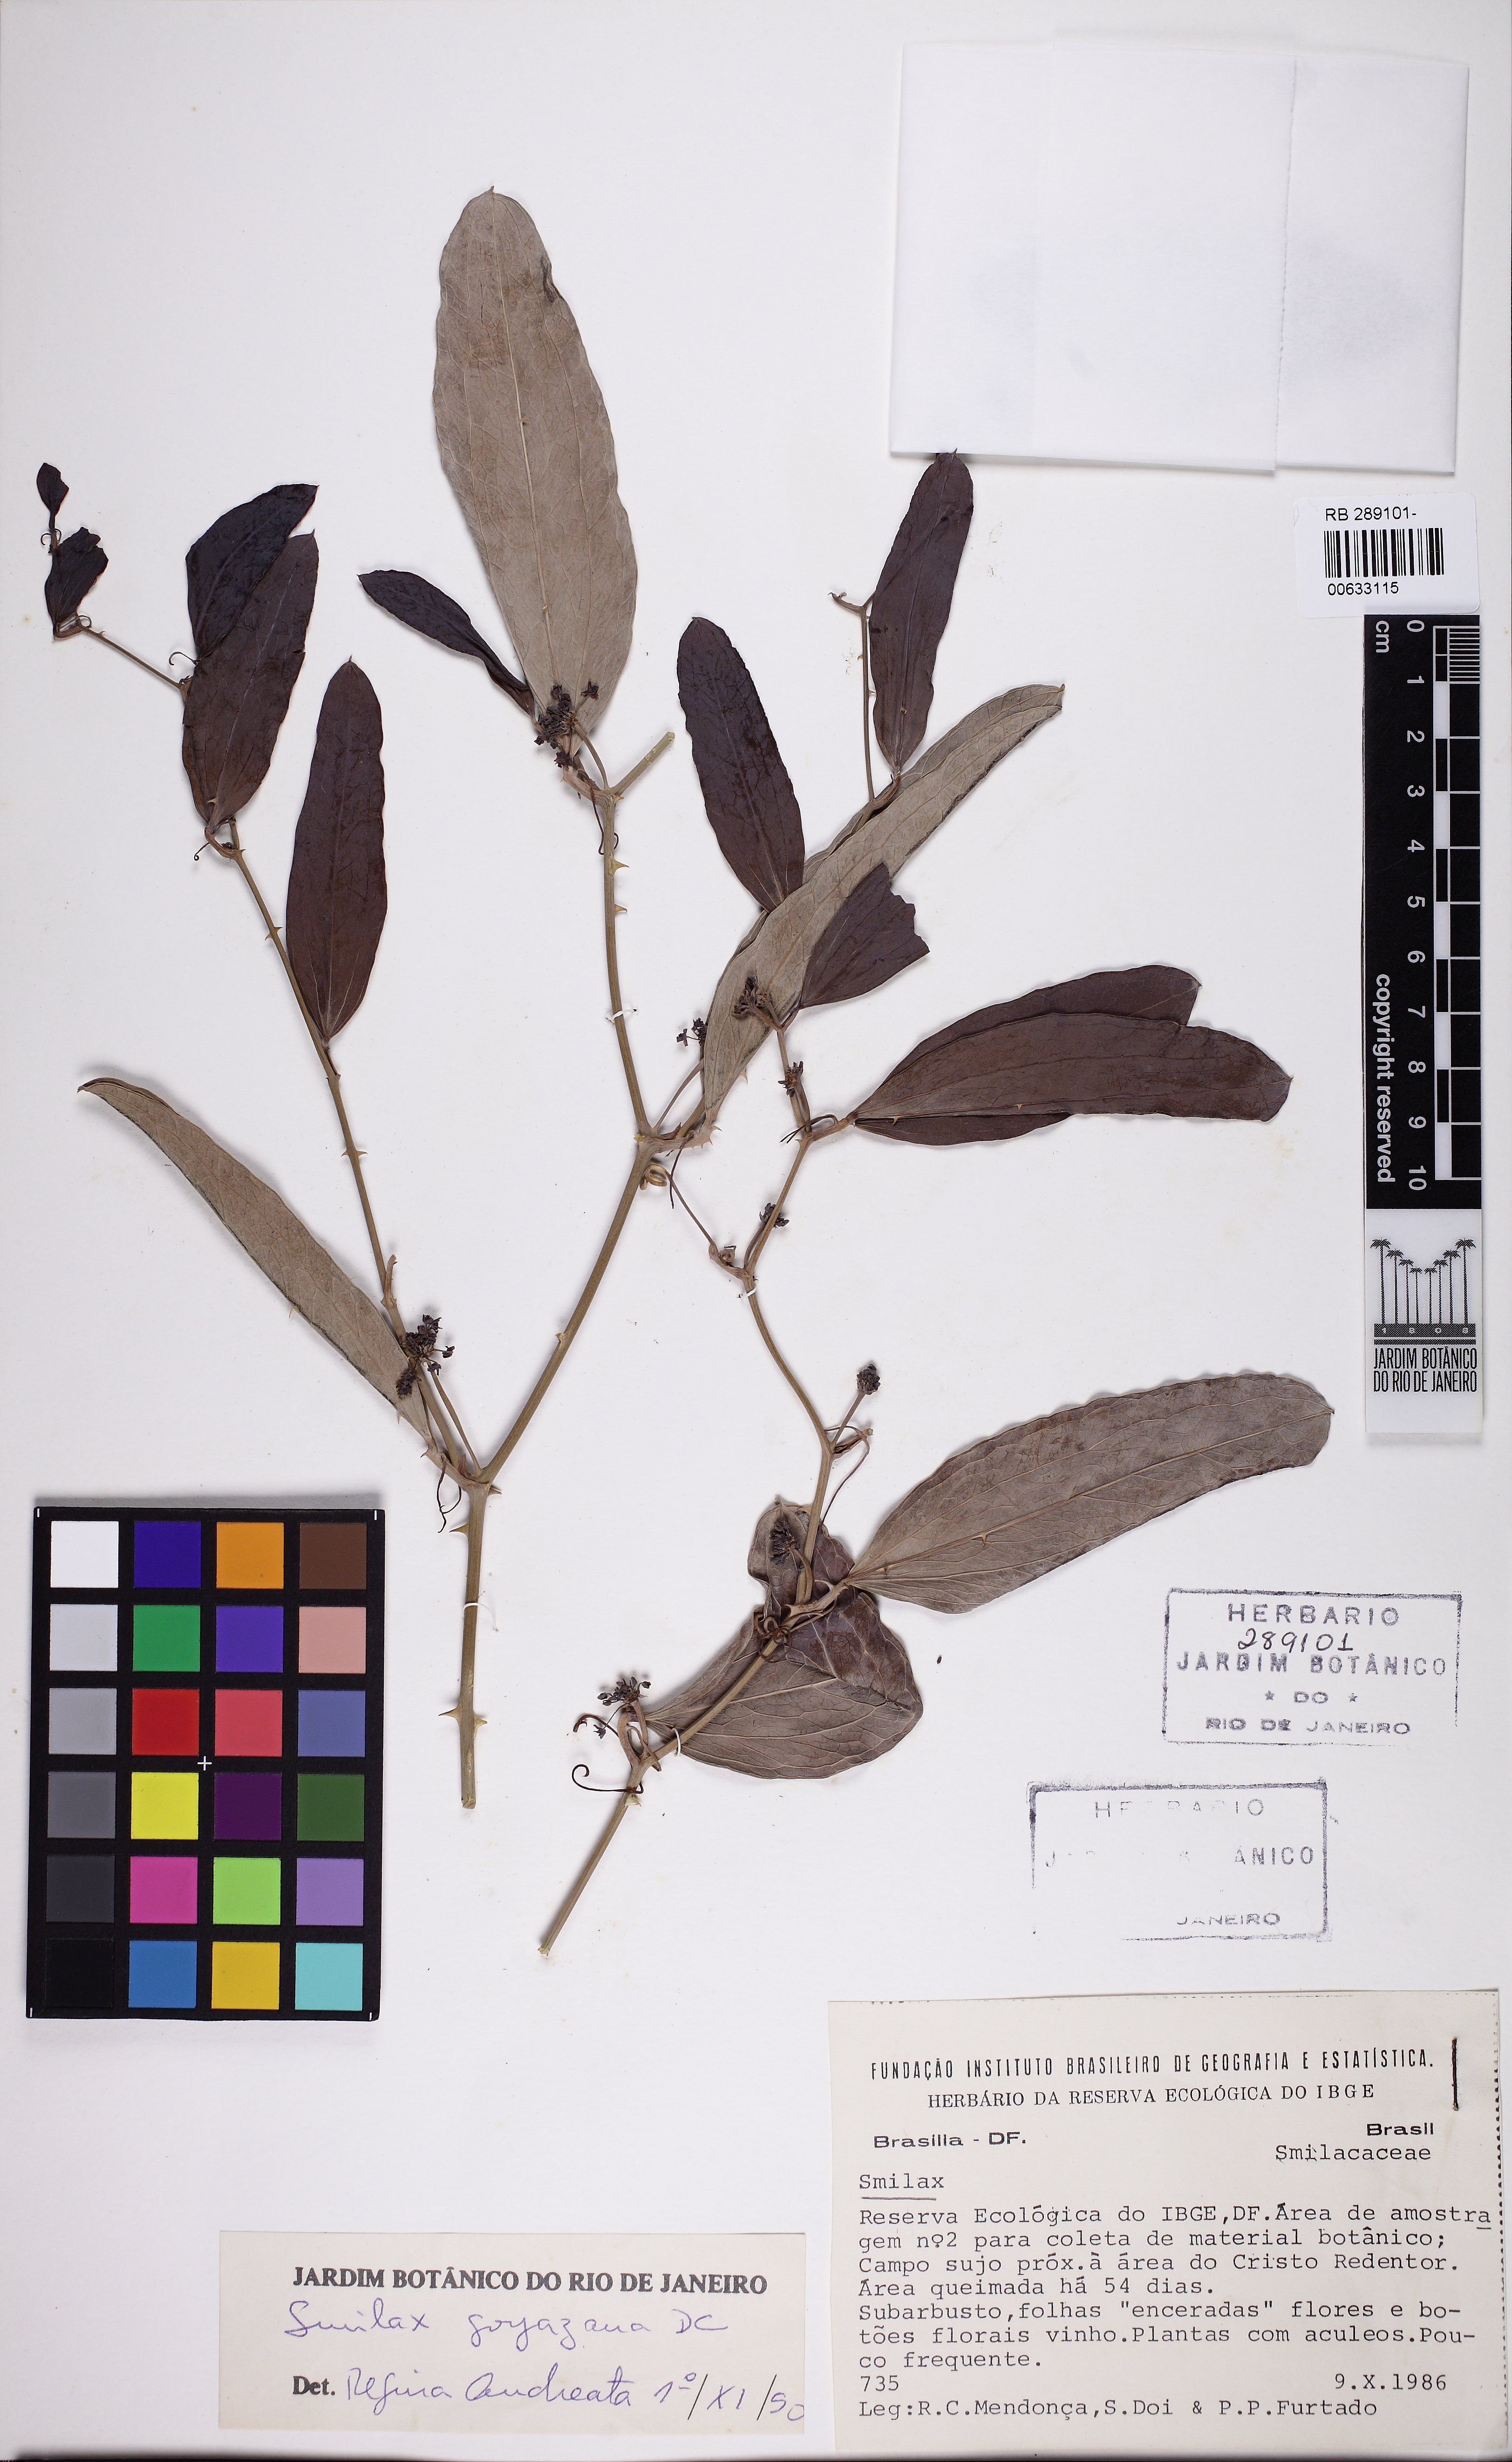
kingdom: Plantae
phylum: Tracheophyta
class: Liliopsida
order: Liliales
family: Smilacaceae
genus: Smilax
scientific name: Smilax goyazana
